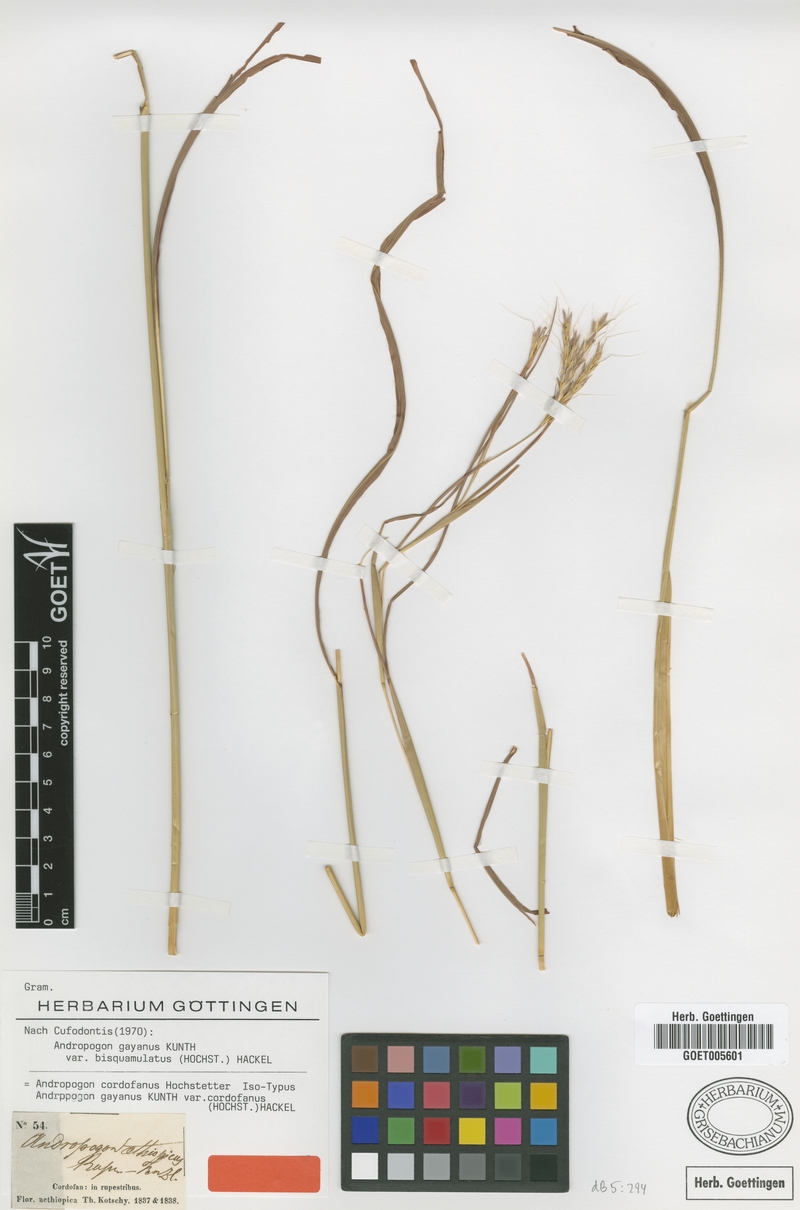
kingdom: Plantae
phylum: Tracheophyta
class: Liliopsida
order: Poales
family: Poaceae
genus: Andropogon
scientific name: Andropogon gayanus
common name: Tambuki grass
